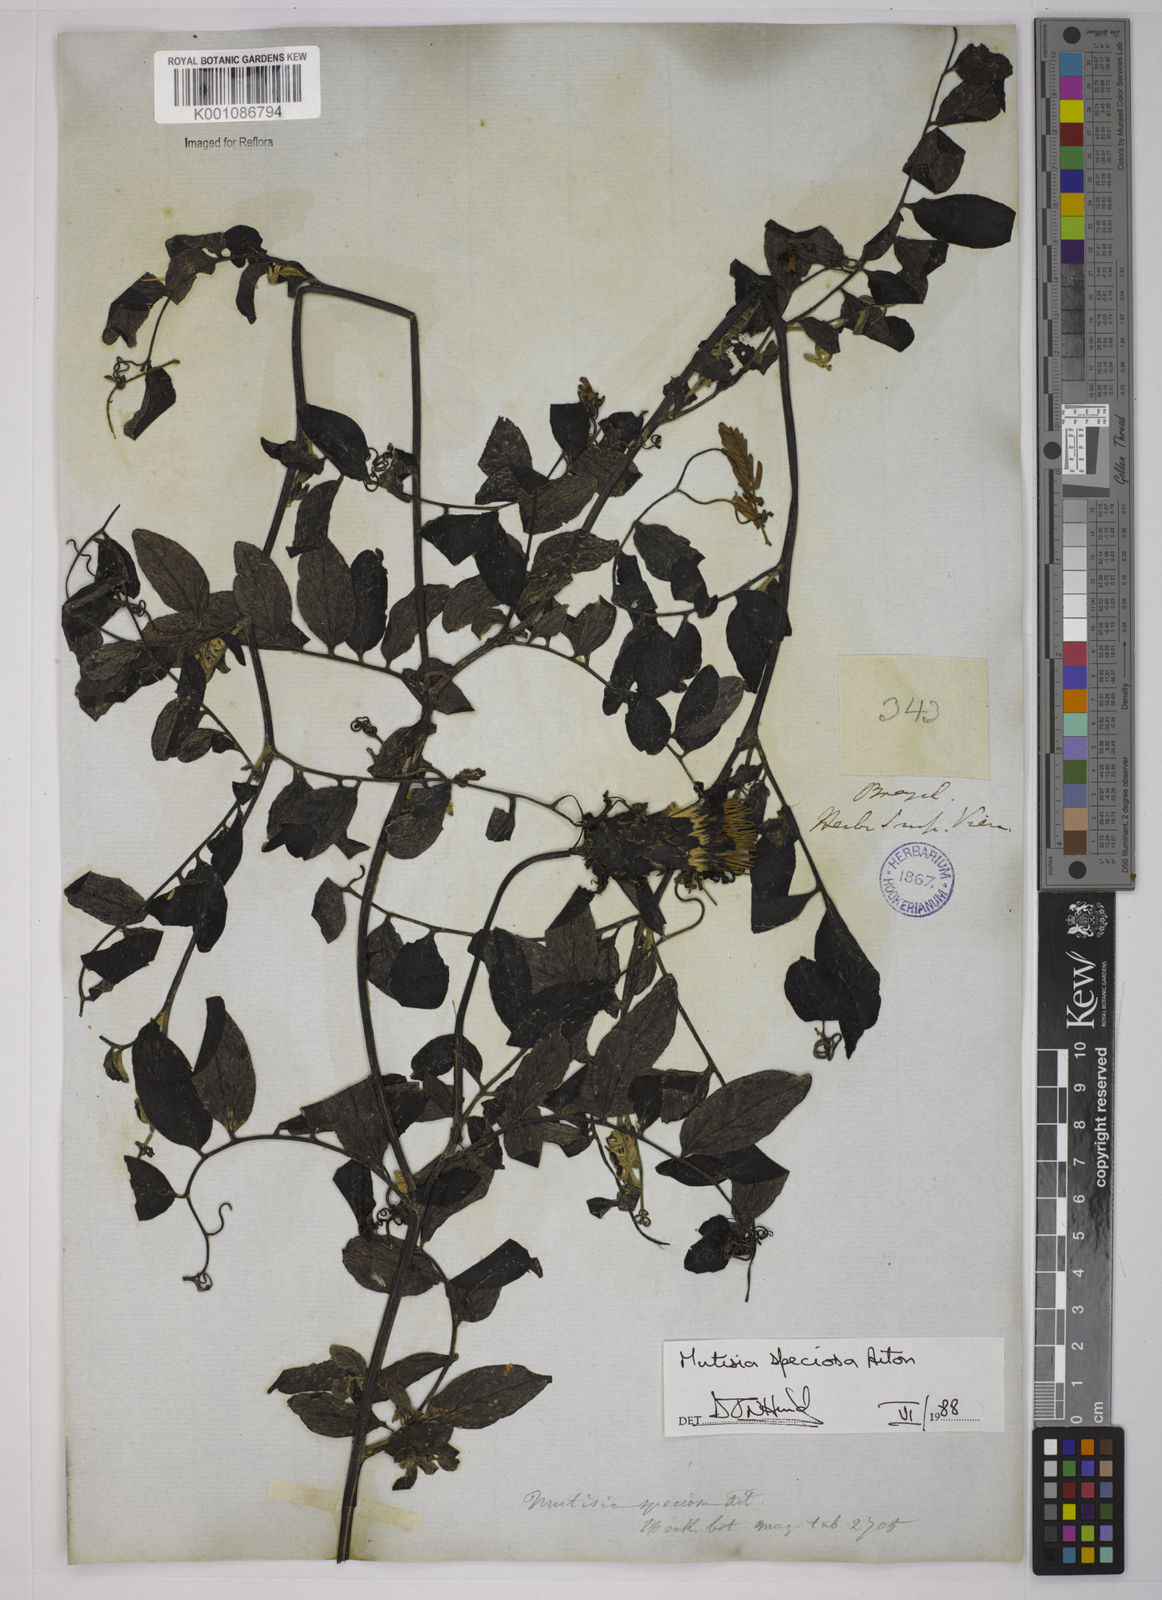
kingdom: Plantae
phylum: Tracheophyta
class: Magnoliopsida
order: Asterales
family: Asteraceae
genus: Mutisia
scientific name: Mutisia speciosa
